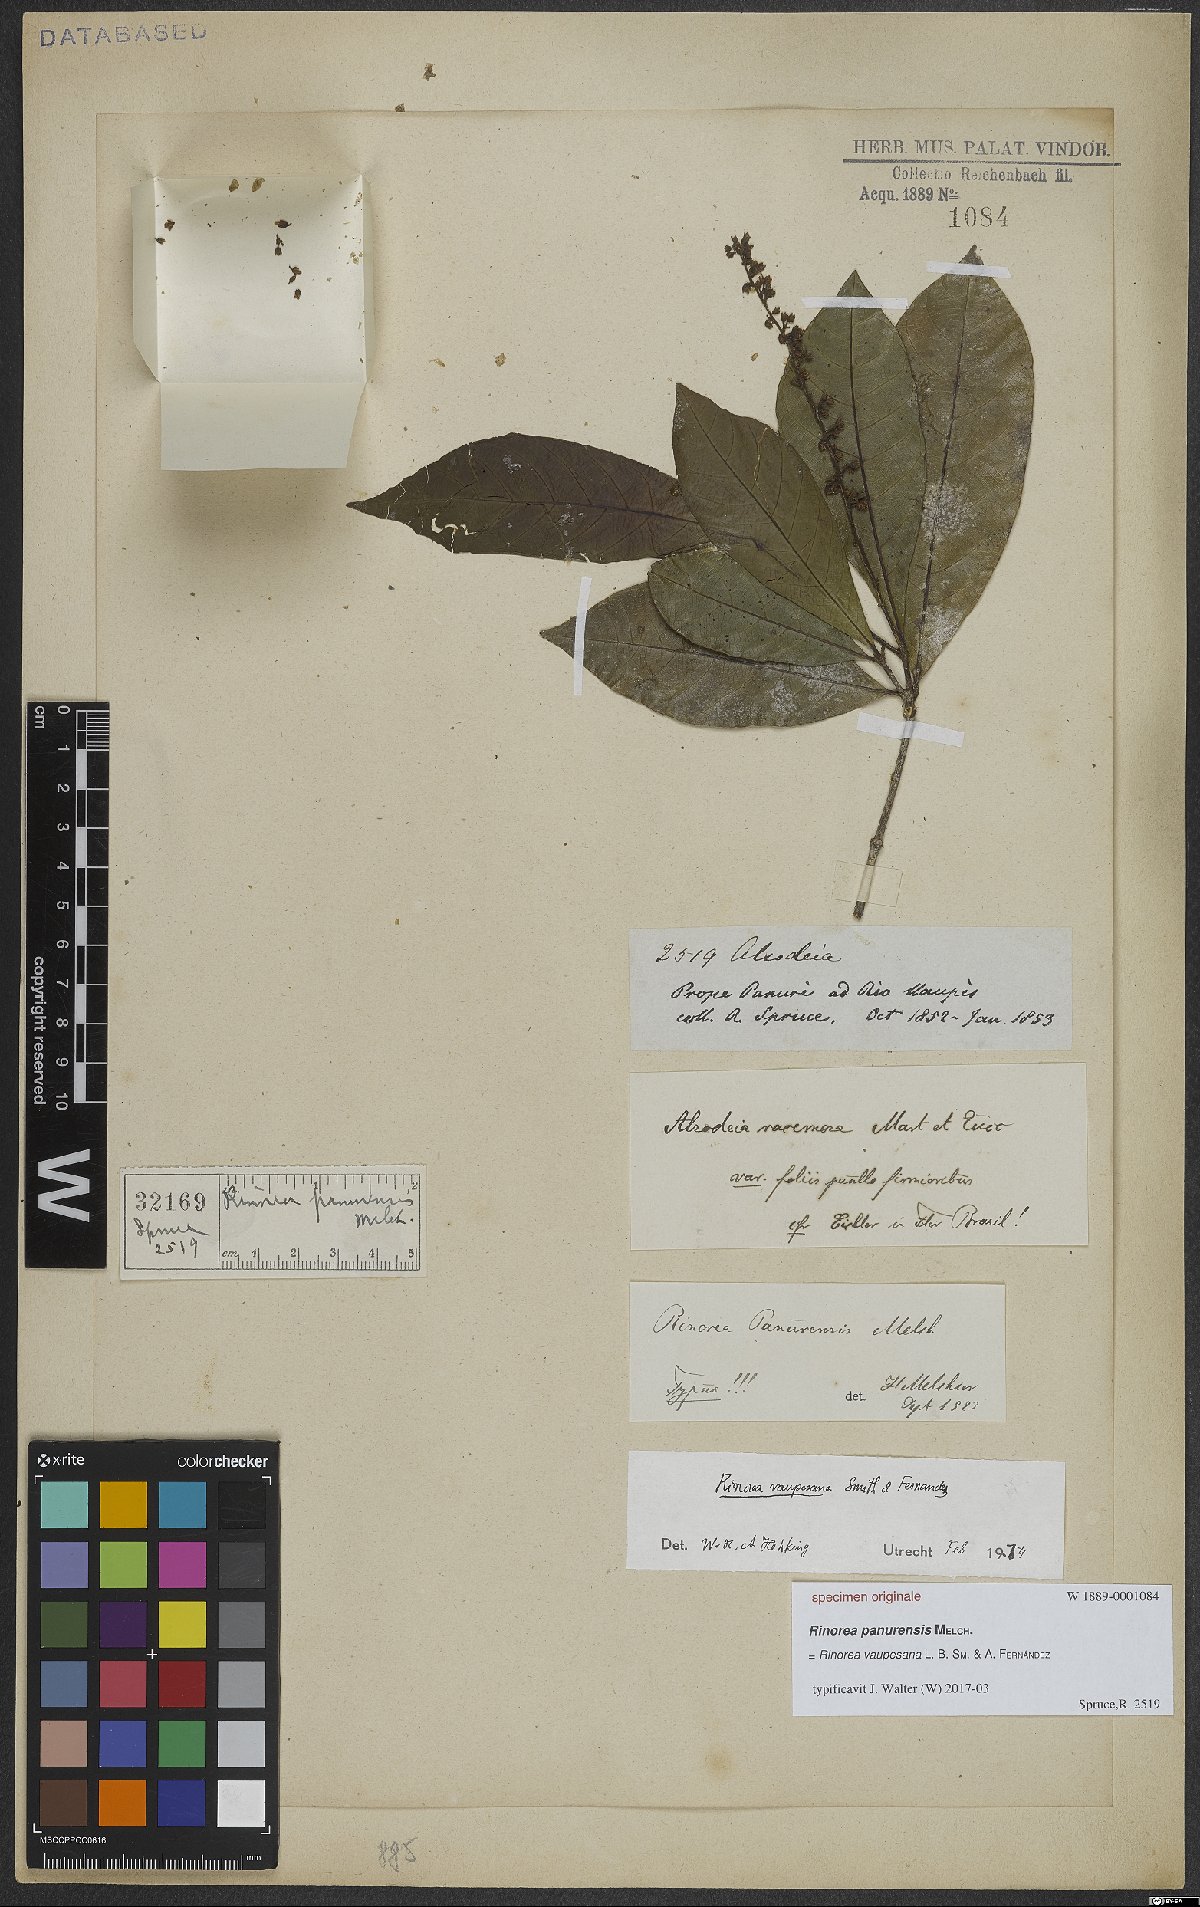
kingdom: Plantae
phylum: Tracheophyta
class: Magnoliopsida
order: Malpighiales
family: Violaceae
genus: Rinorea
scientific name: Rinorea vaupesana
